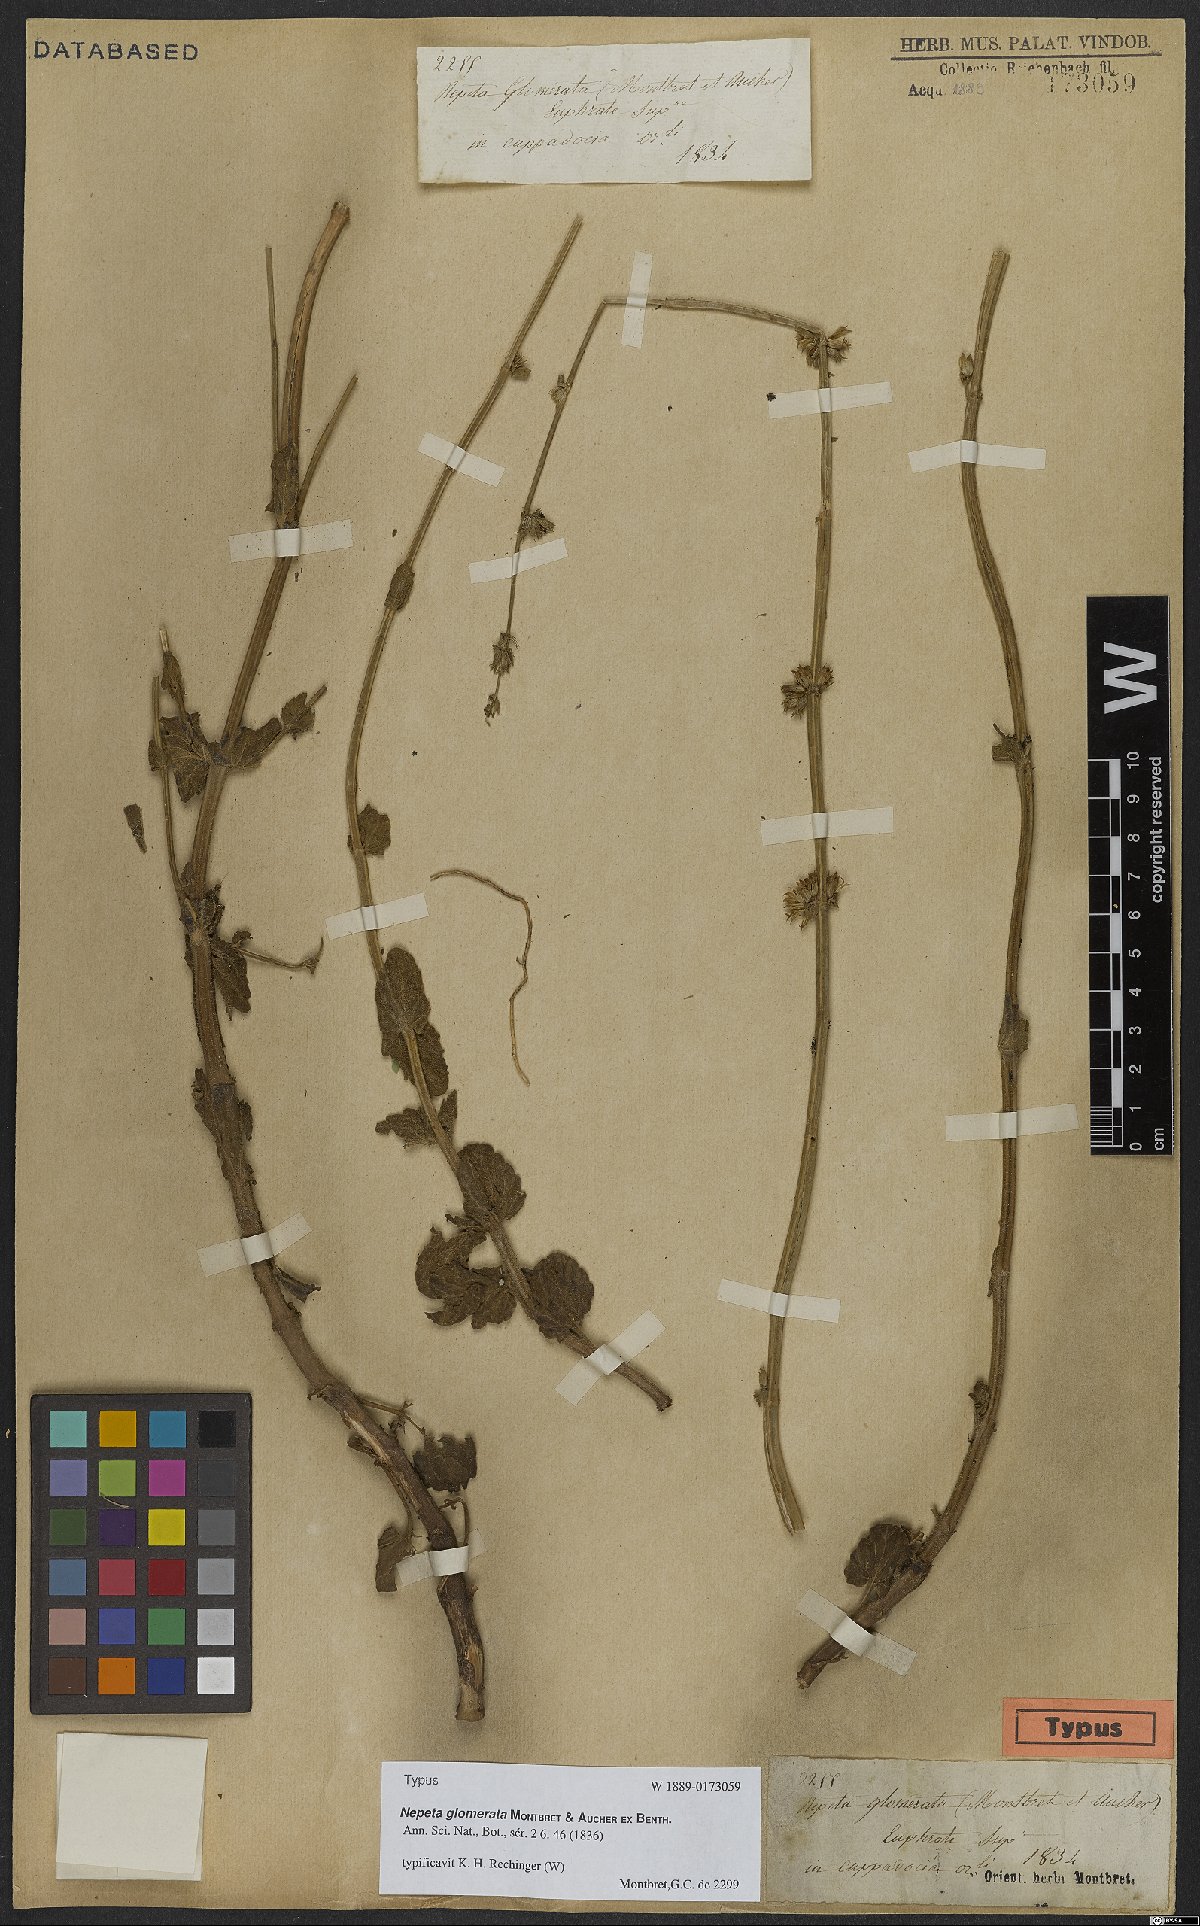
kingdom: Plantae
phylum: Tracheophyta
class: Magnoliopsida
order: Lamiales
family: Lamiaceae
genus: Nepeta
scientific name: Nepeta glomerata
